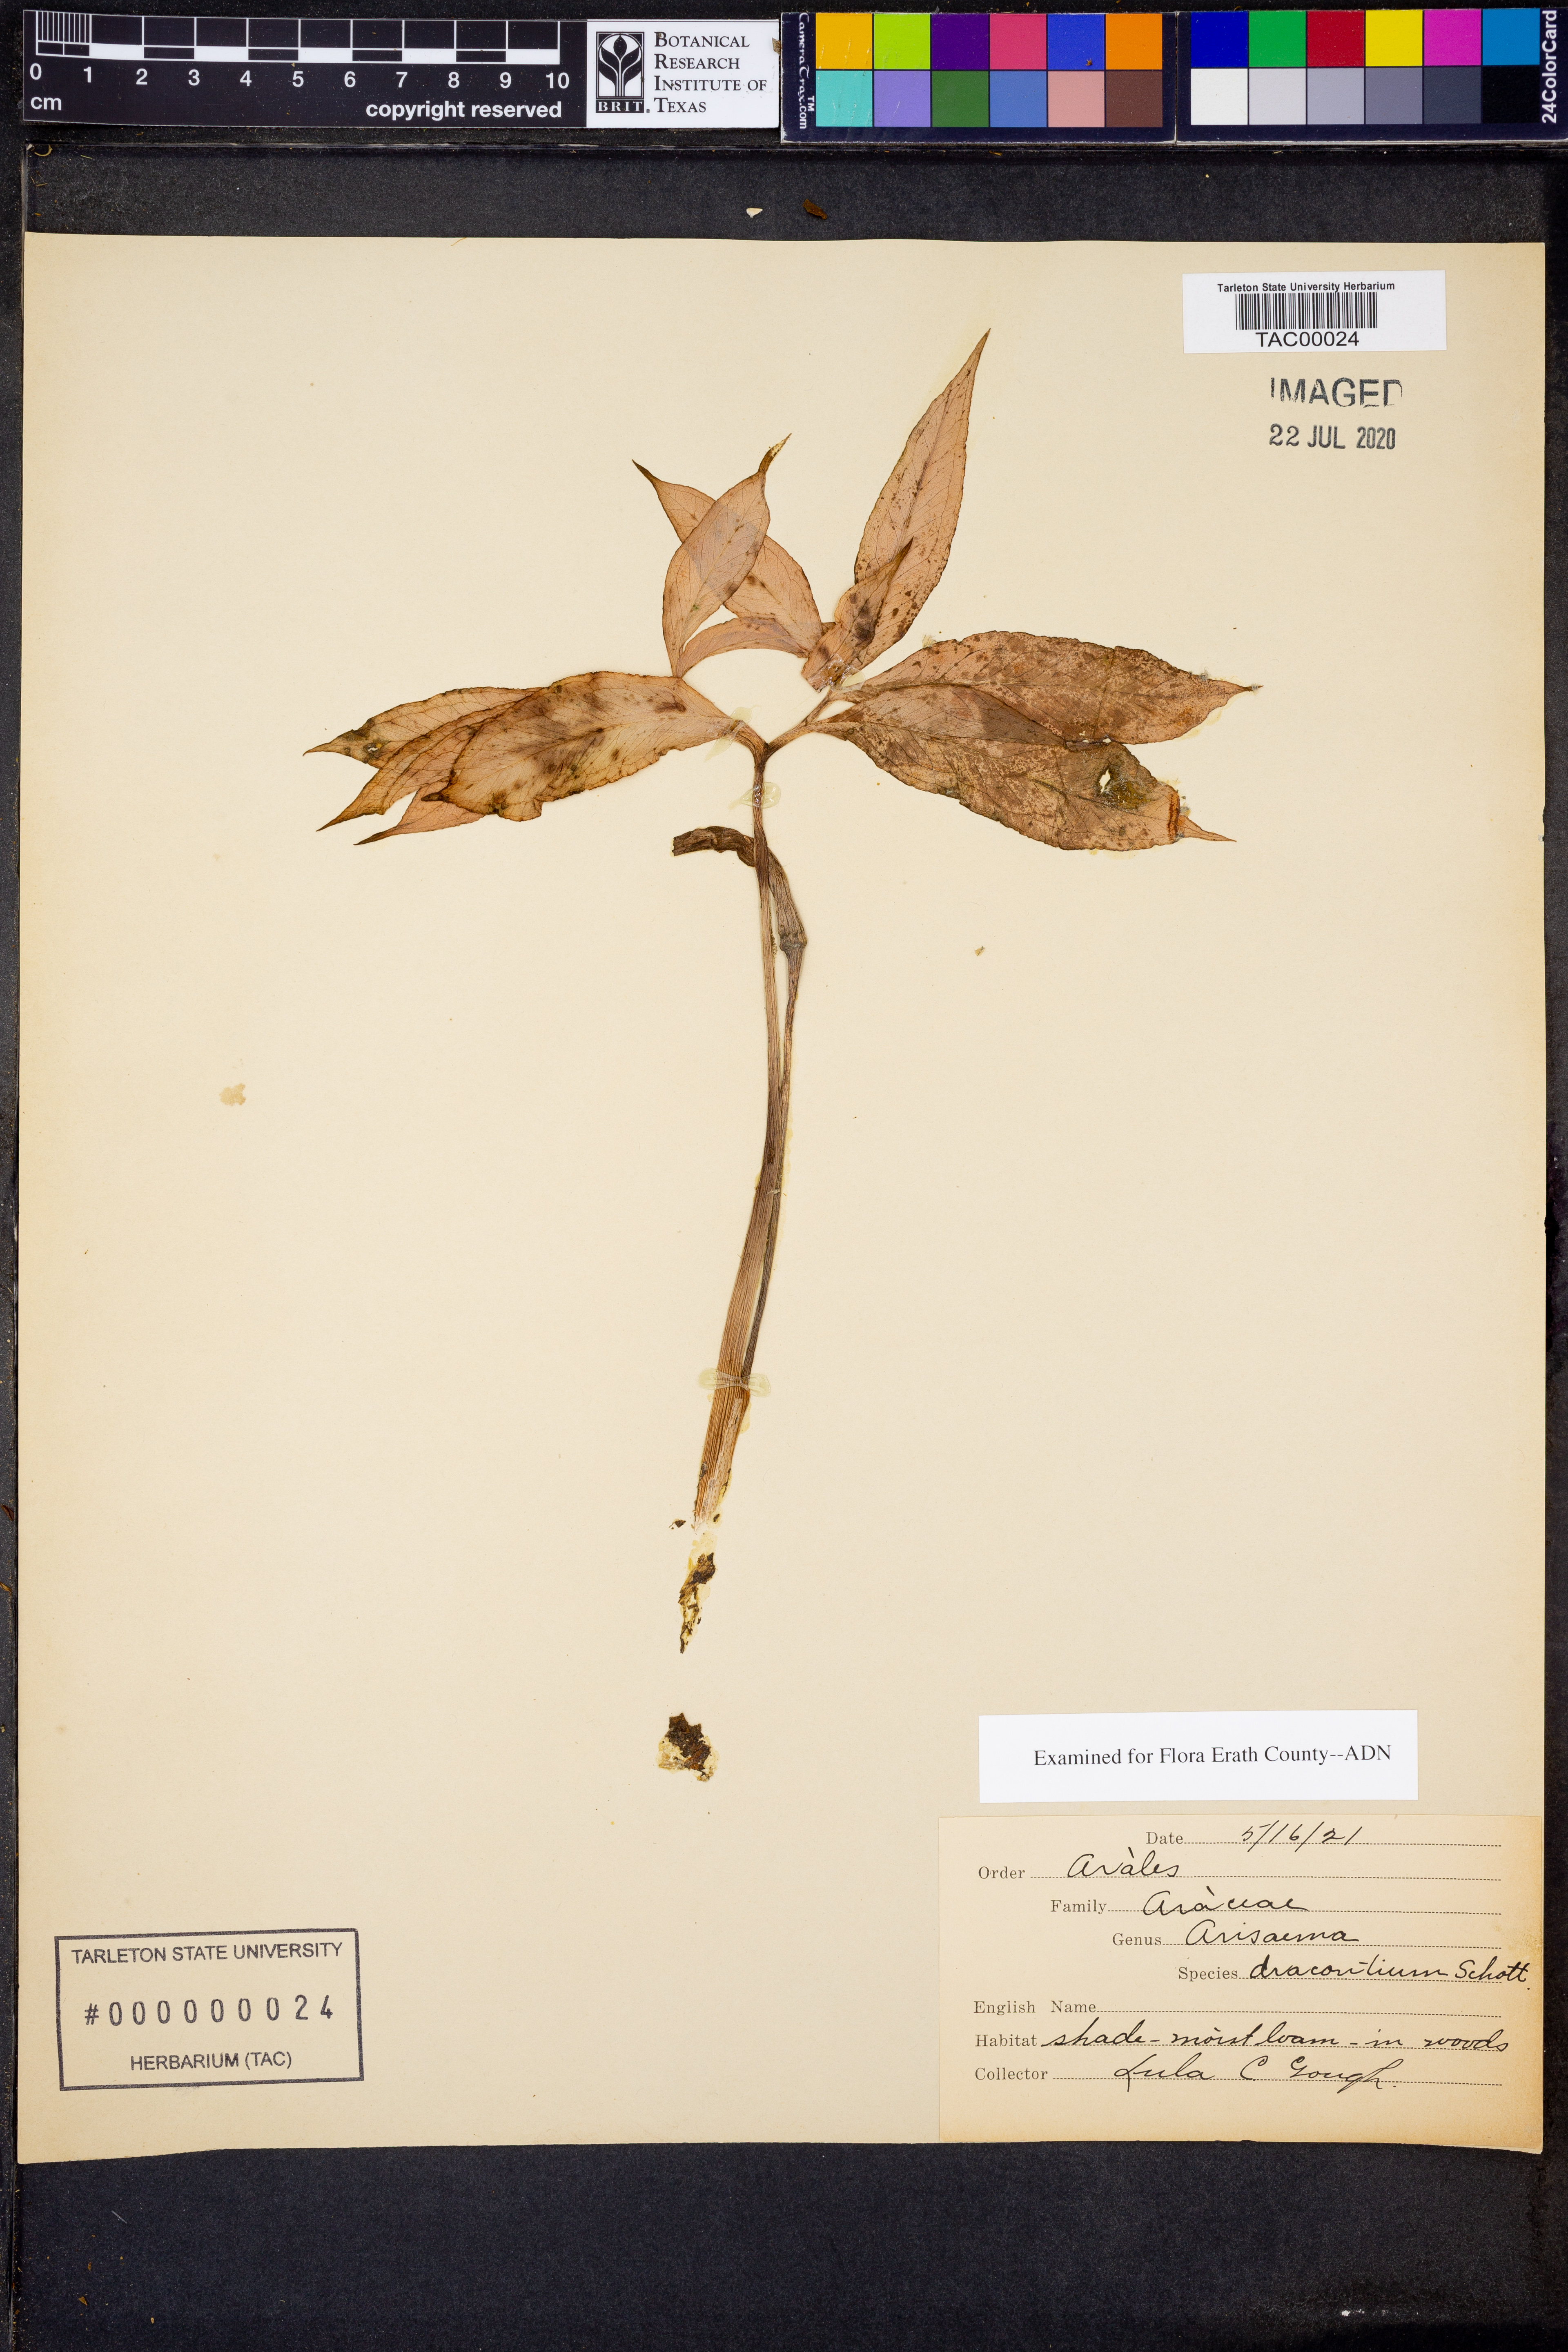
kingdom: Plantae
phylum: Tracheophyta
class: Liliopsida
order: Alismatales
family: Araceae
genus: Arisaema
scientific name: Arisaema dracontium
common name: Dragon-arum
